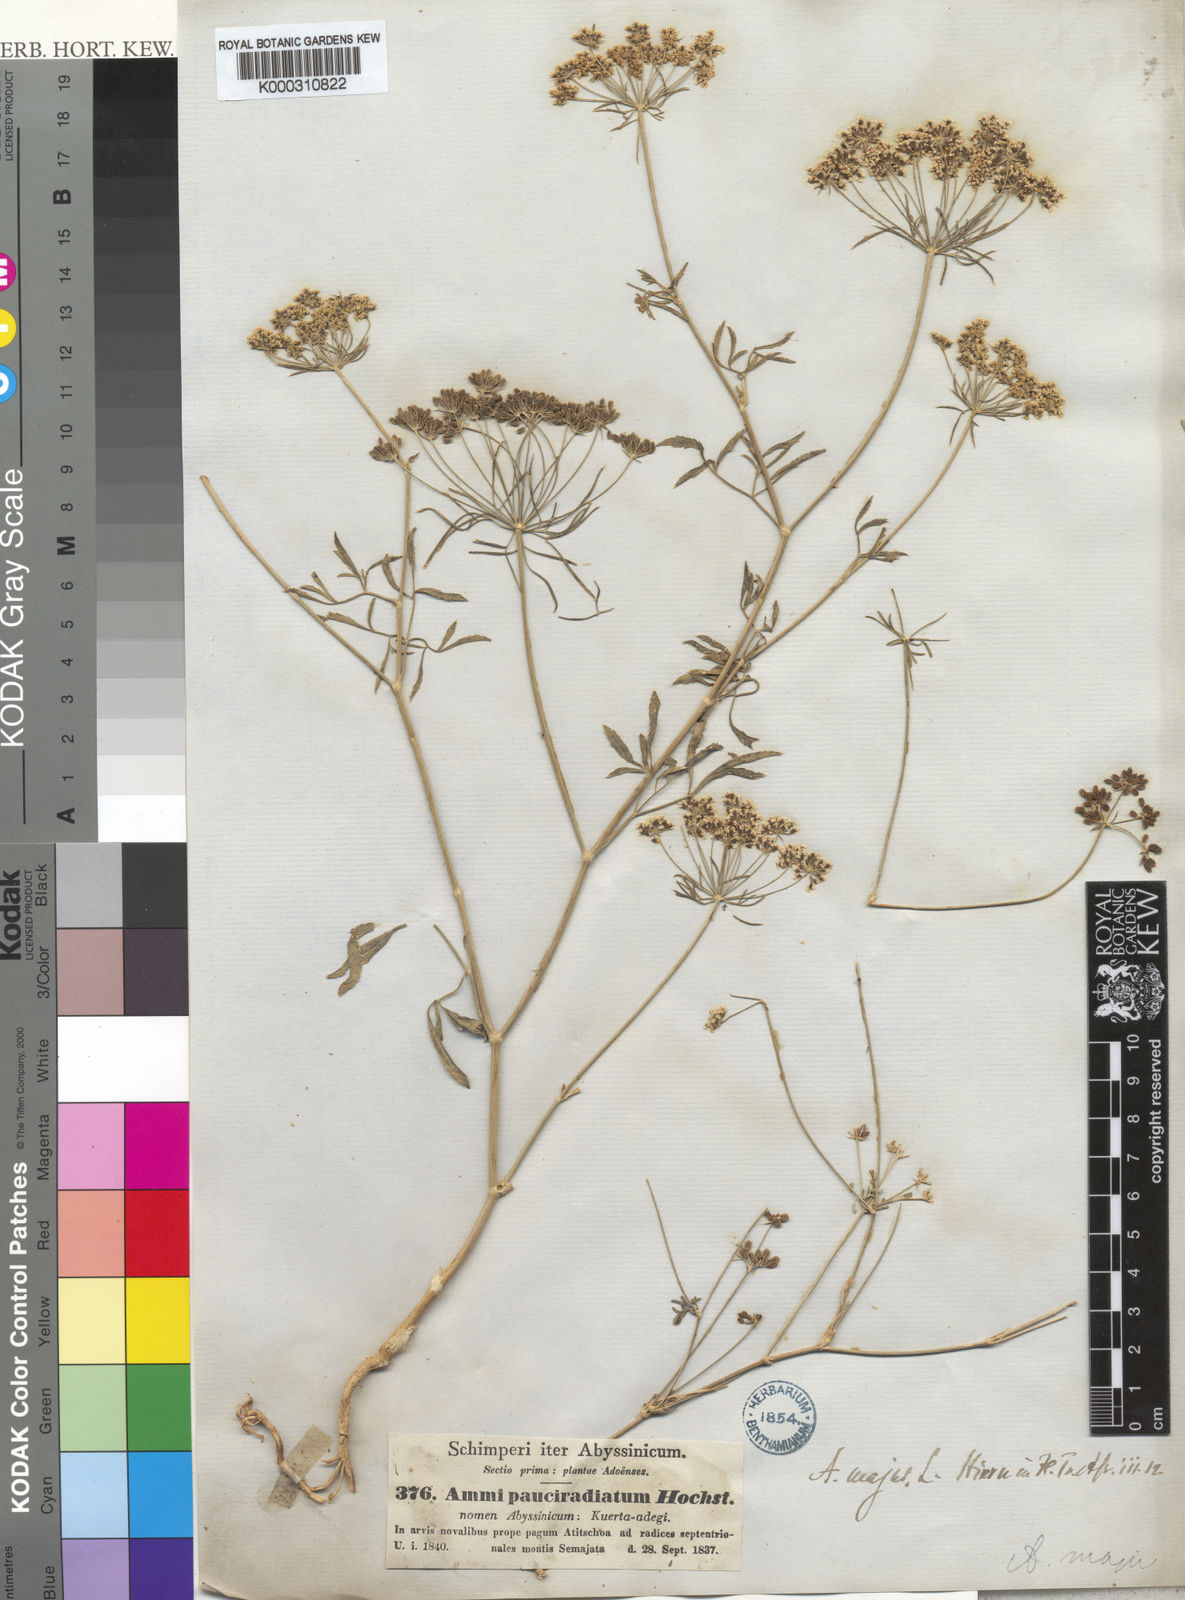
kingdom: Plantae
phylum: Tracheophyta
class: Magnoliopsida
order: Apiales
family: Apiaceae
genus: Ammi
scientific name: Ammi majus
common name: Bullwort
